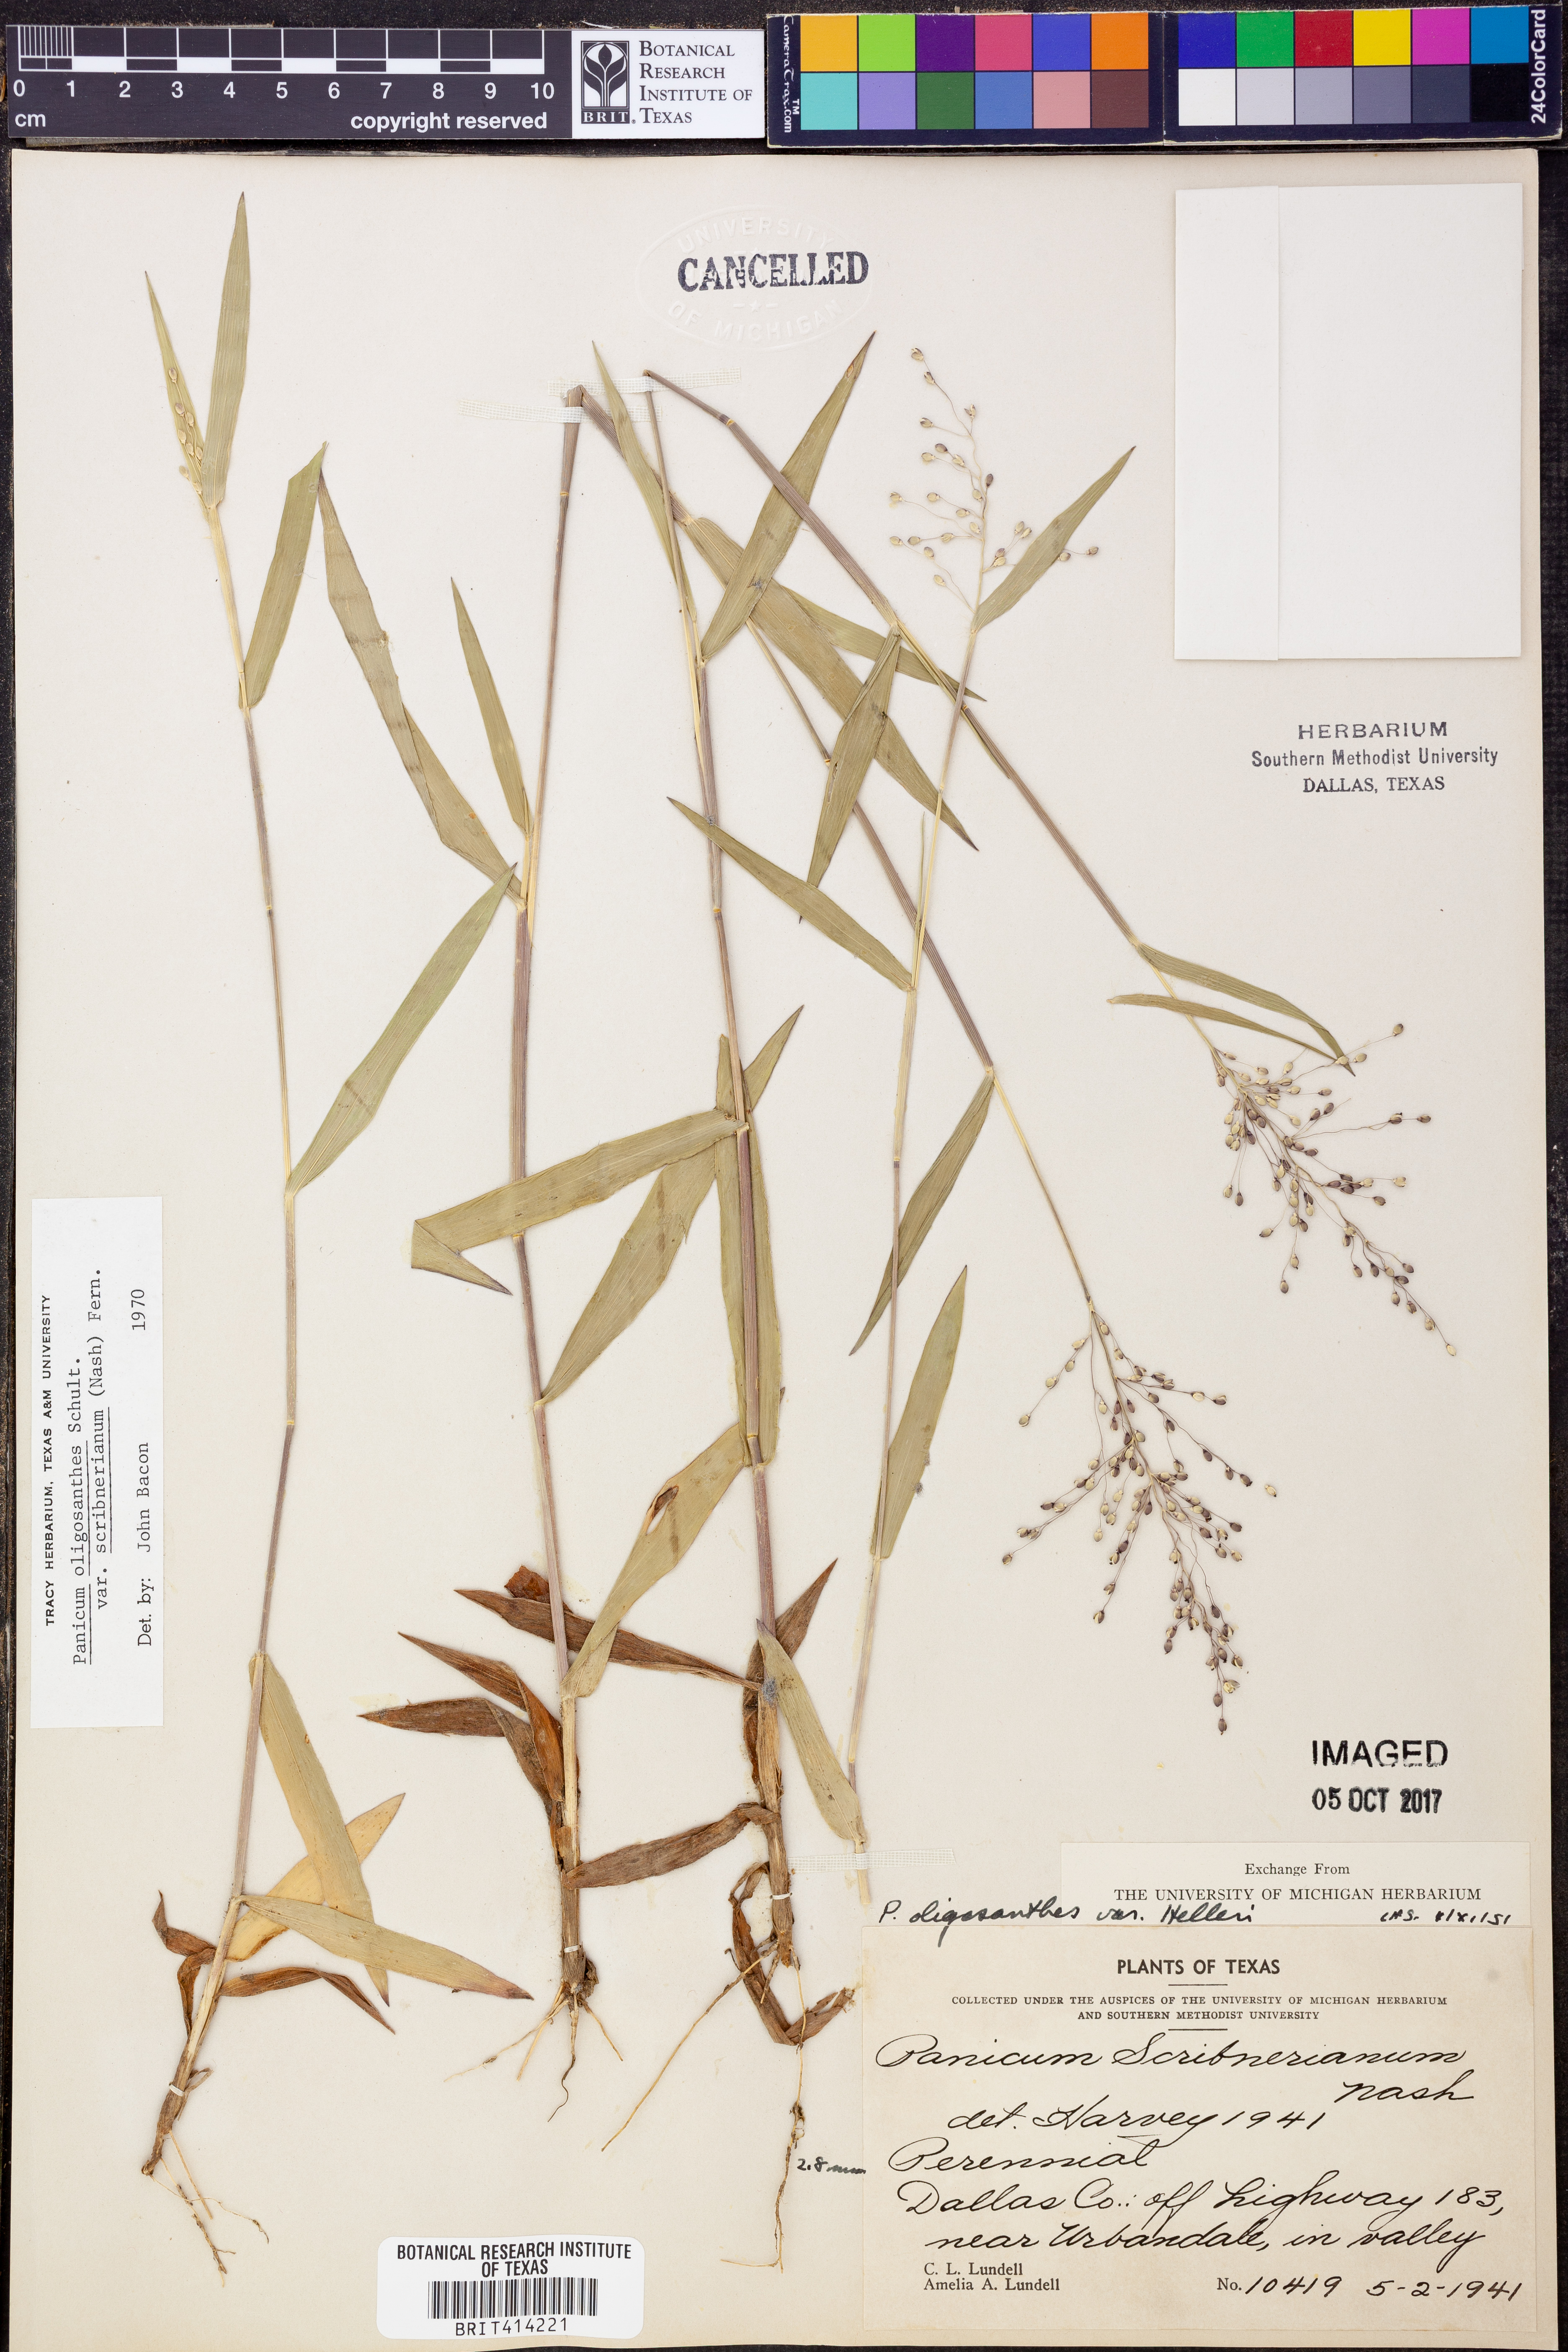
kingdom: Plantae
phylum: Tracheophyta
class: Liliopsida
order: Poales
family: Poaceae
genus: Dichanthelium
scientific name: Dichanthelium scribnerianum
